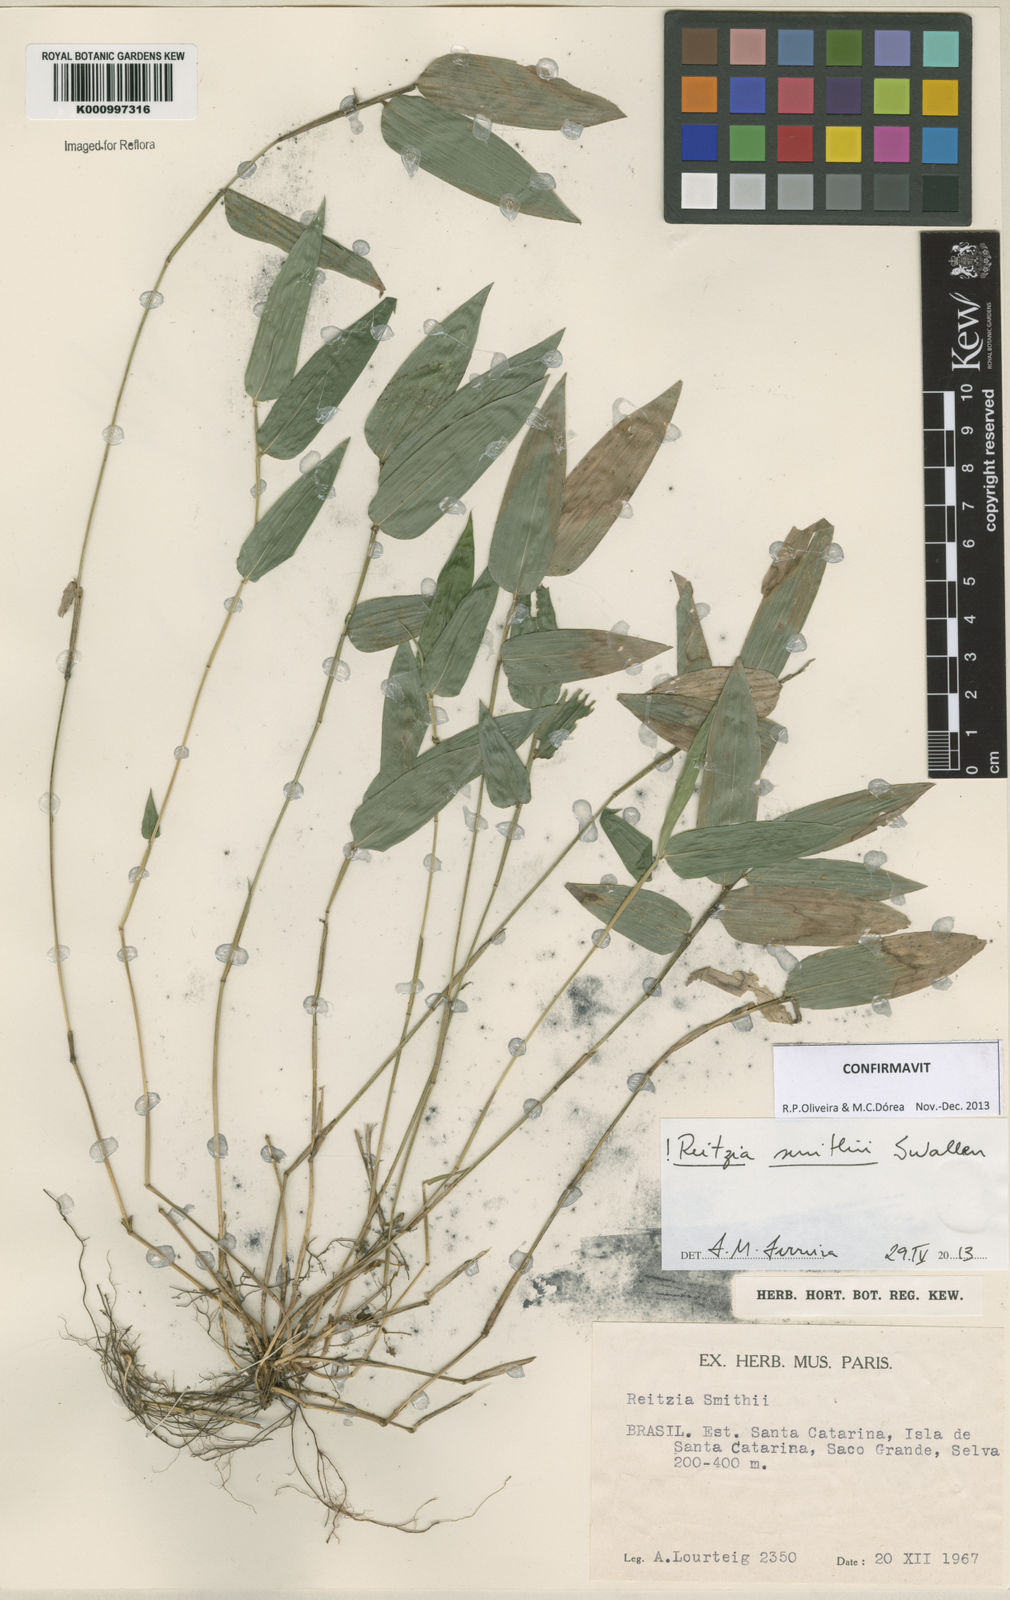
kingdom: Plantae
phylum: Tracheophyta
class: Liliopsida
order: Poales
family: Poaceae
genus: Reitzia
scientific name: Reitzia smithii
